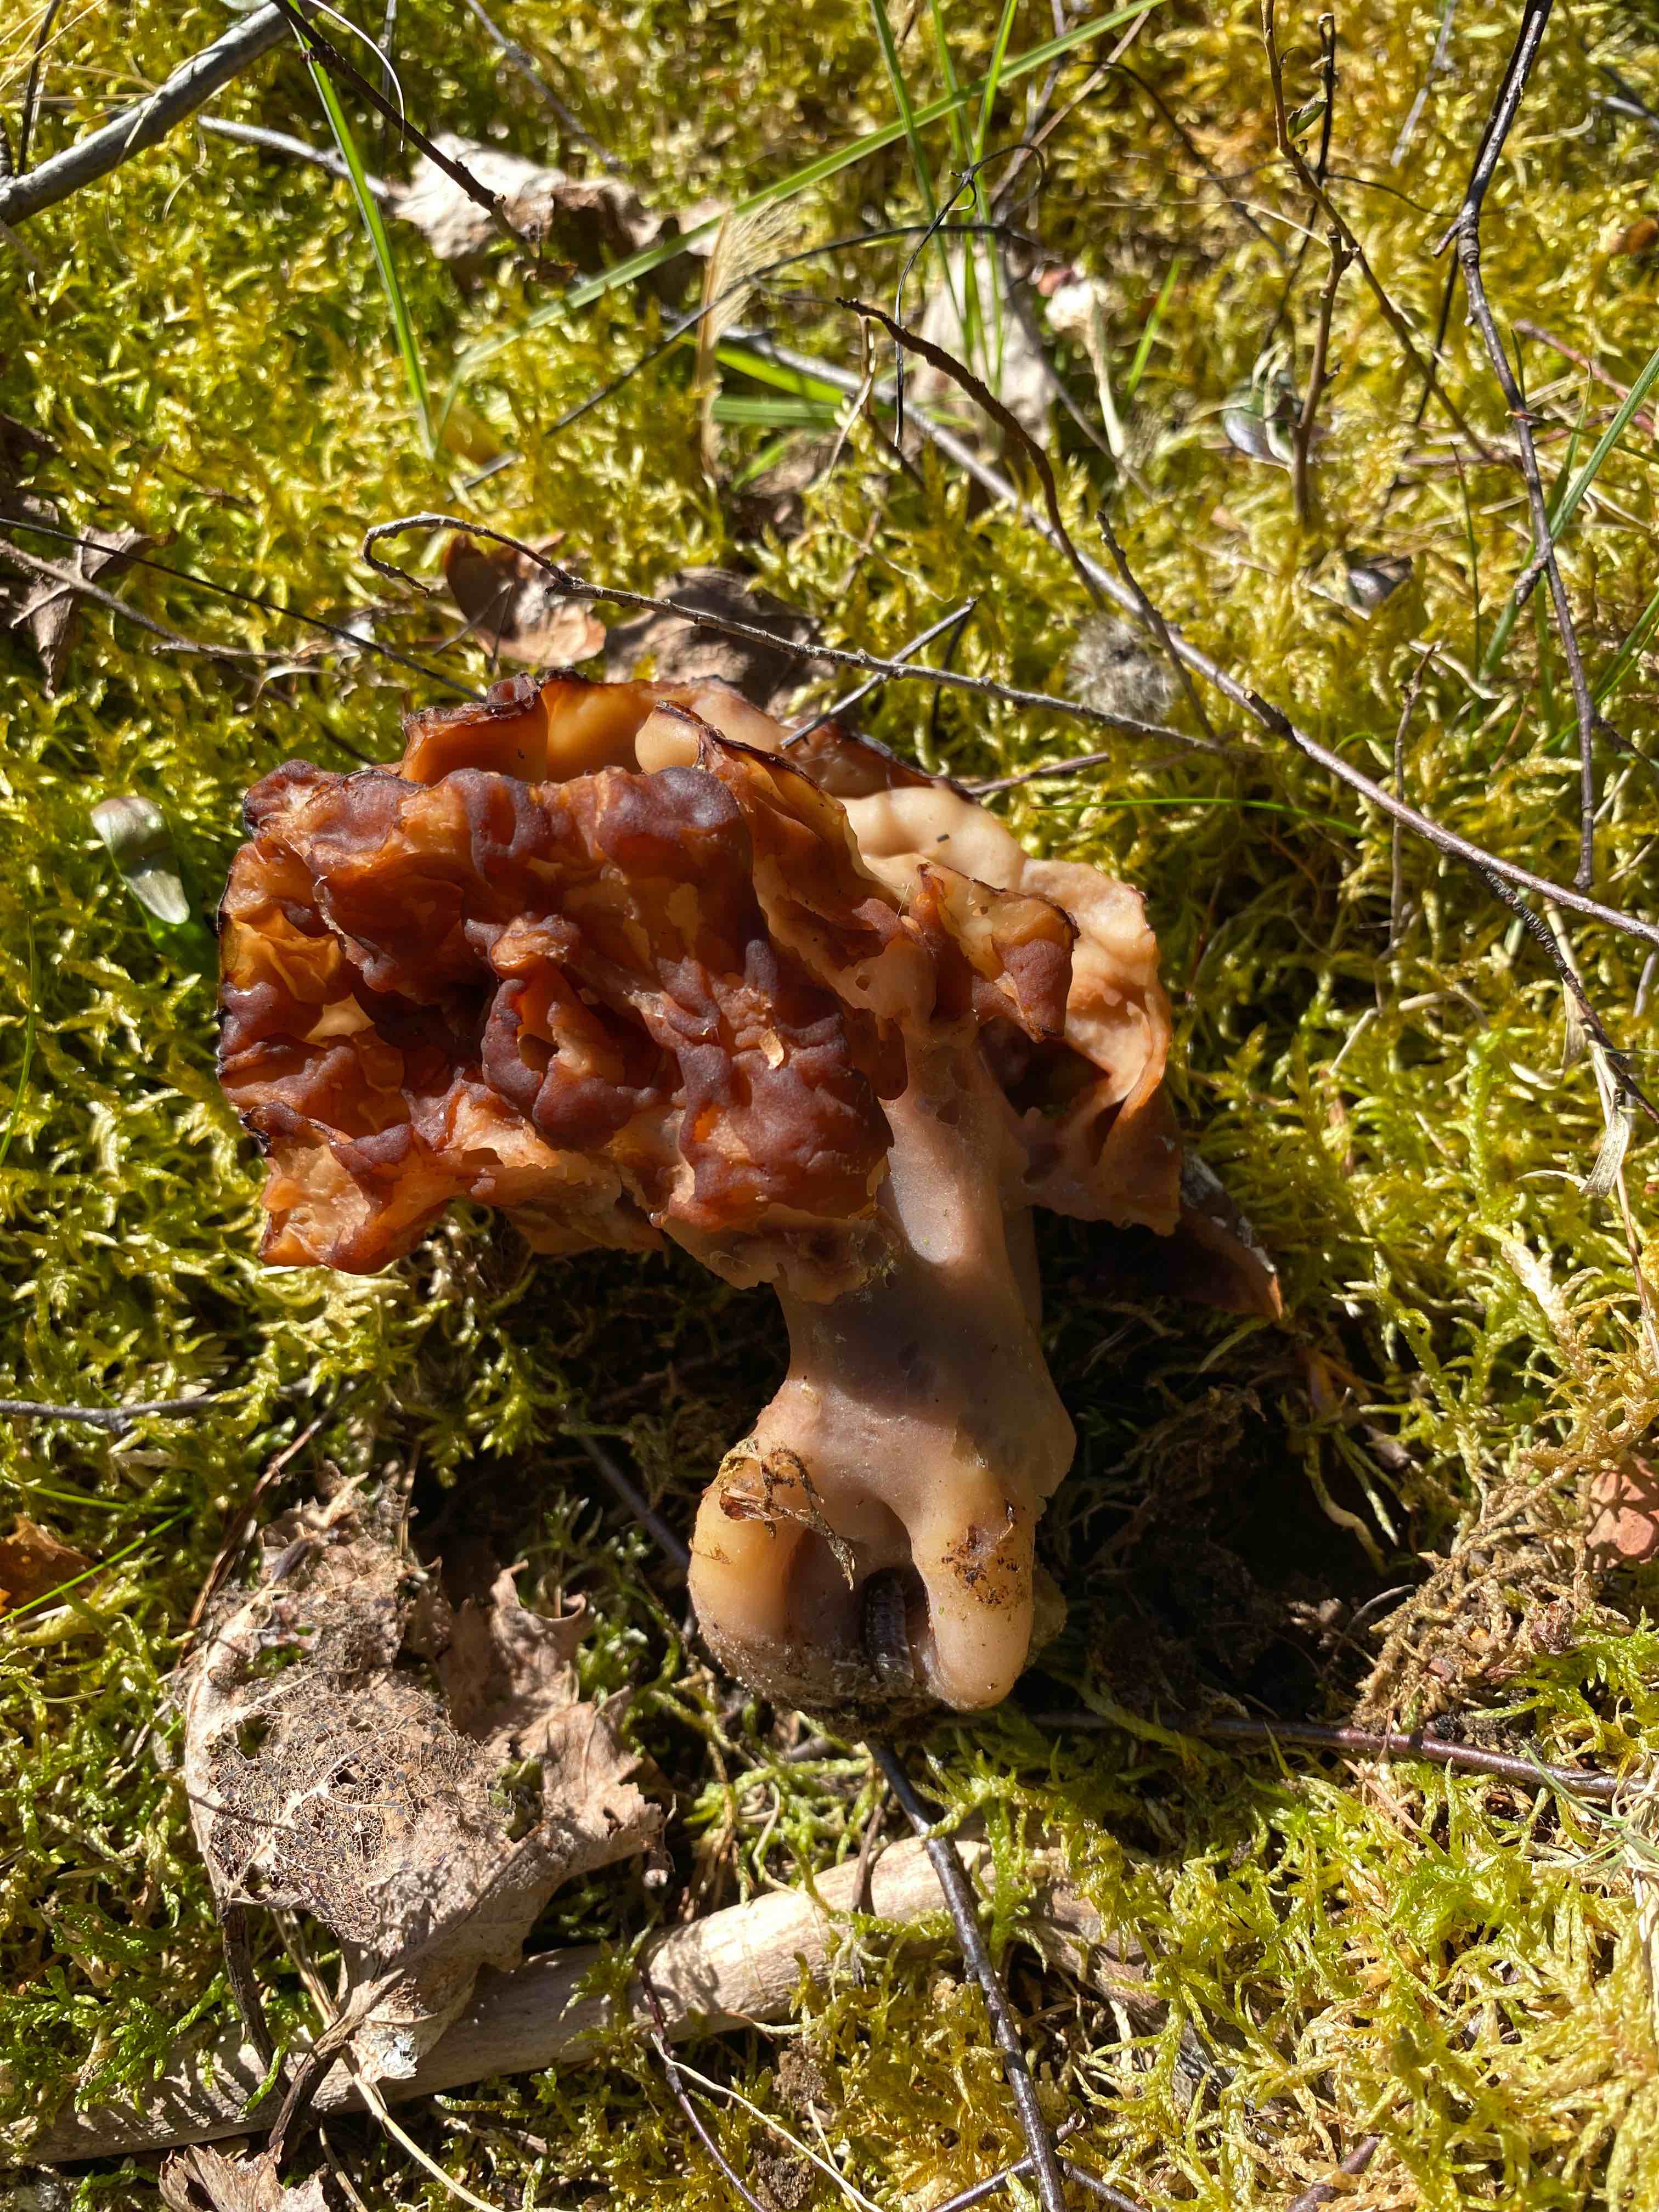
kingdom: Fungi
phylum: Ascomycota
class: Pezizomycetes
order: Pezizales
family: Discinaceae
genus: Gyromitra
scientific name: Gyromitra esculenta
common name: ægte stenmorkel
